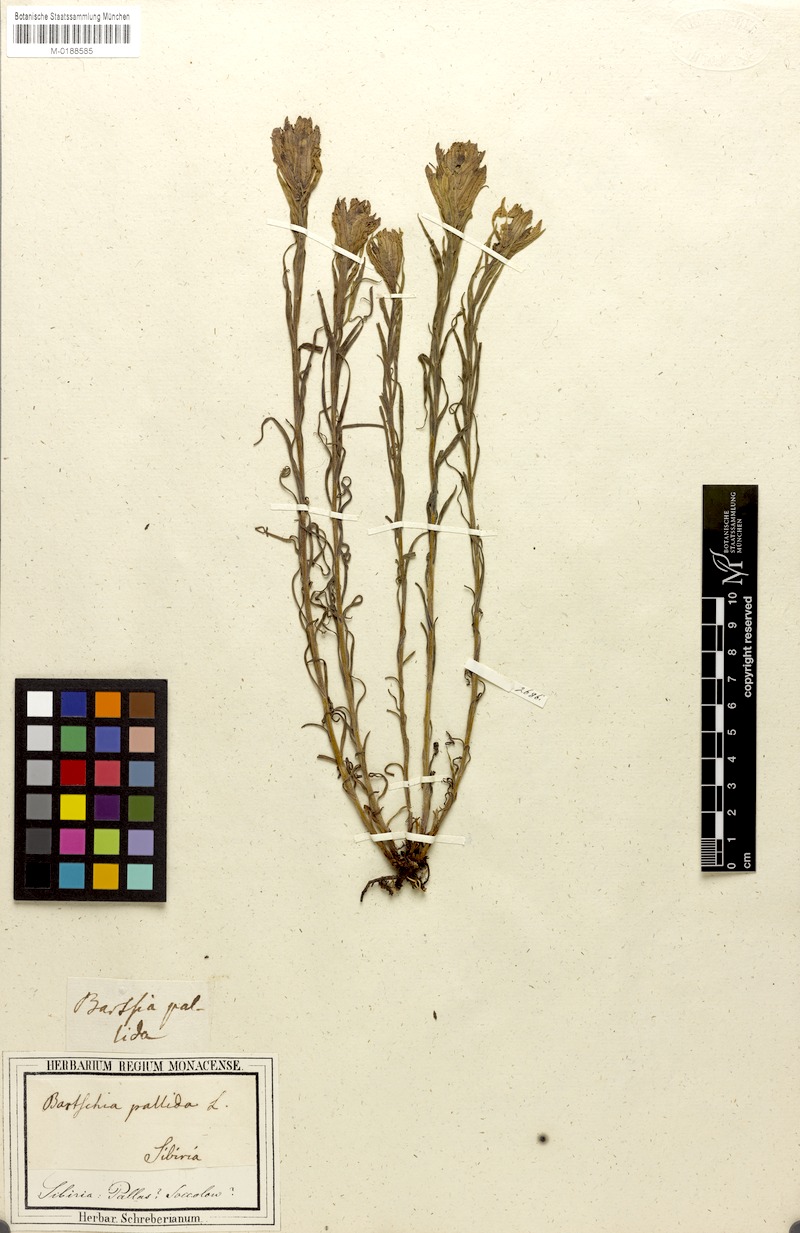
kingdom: Plantae
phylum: Tracheophyta
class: Magnoliopsida
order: Lamiales
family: Orobanchaceae
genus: Castilleja
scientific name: Castilleja pallida
